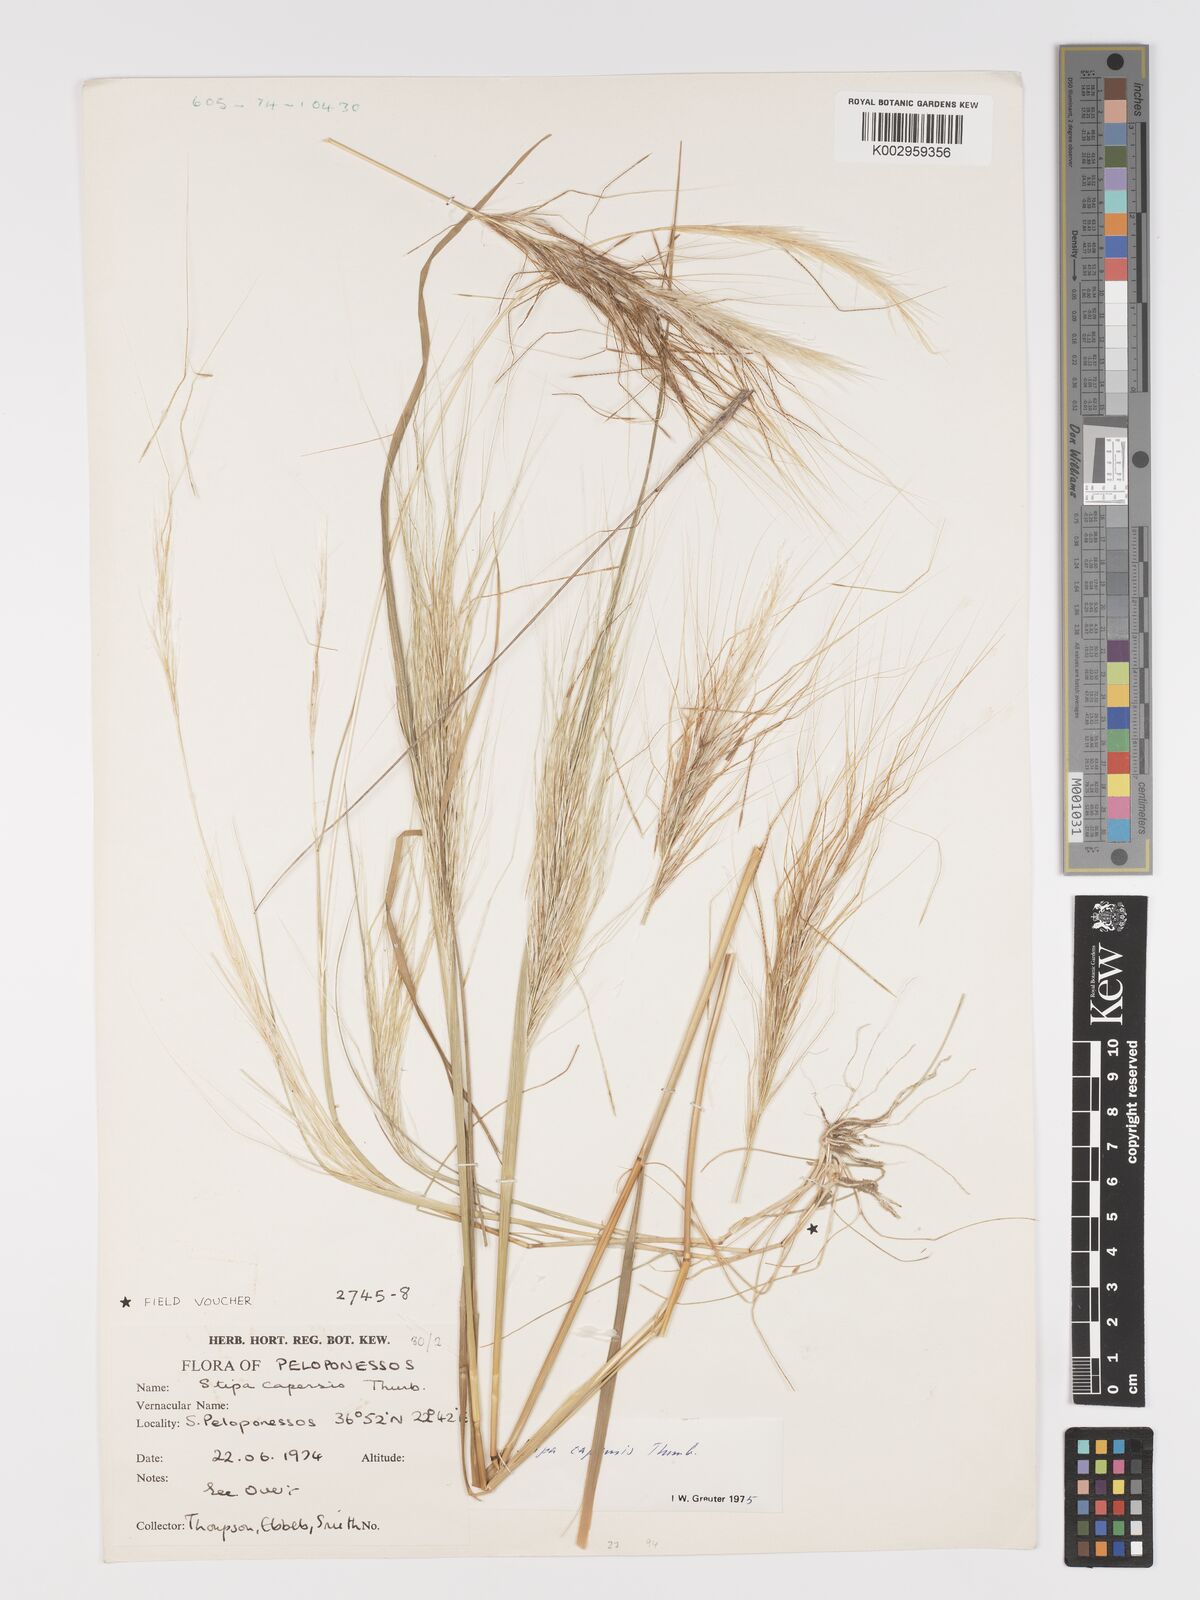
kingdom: Plantae
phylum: Tracheophyta
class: Liliopsida
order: Poales
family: Poaceae
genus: Stipellula
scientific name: Stipellula capensis
